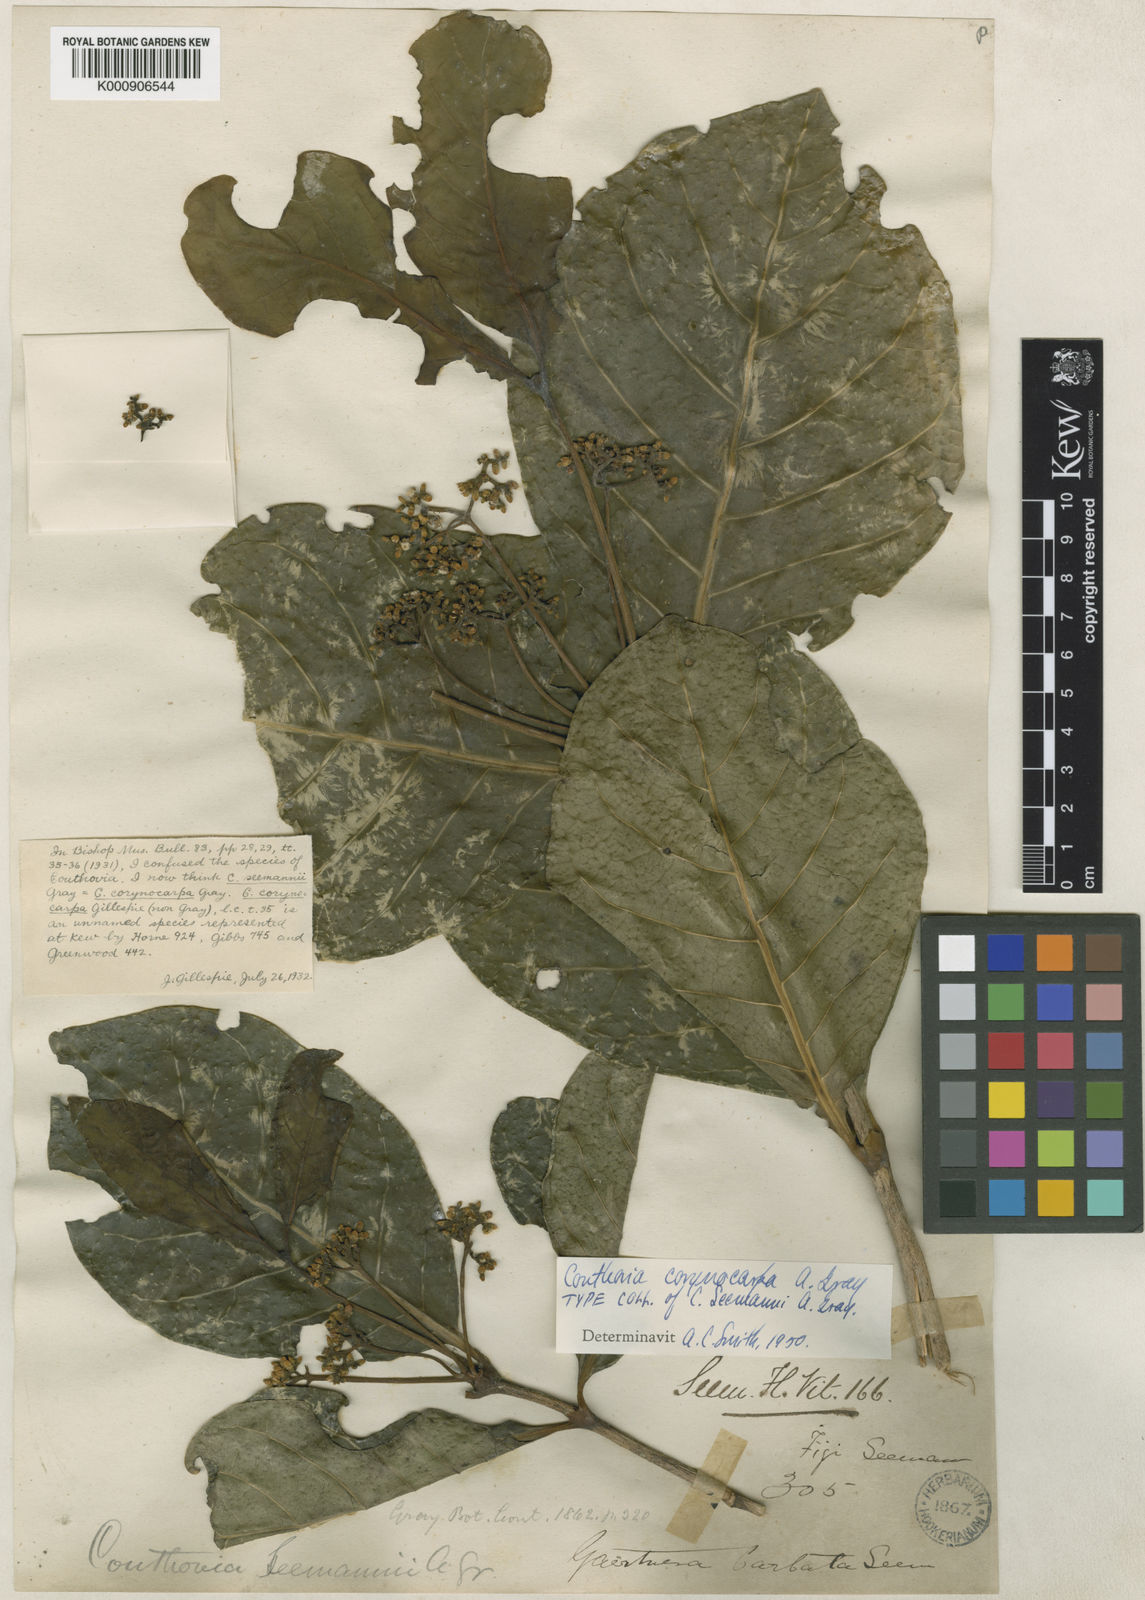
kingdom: Plantae
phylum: Tracheophyta
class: Magnoliopsida
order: Gentianales
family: Loganiaceae
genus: Neuburgia
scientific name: Neuburgia corynocarpa
